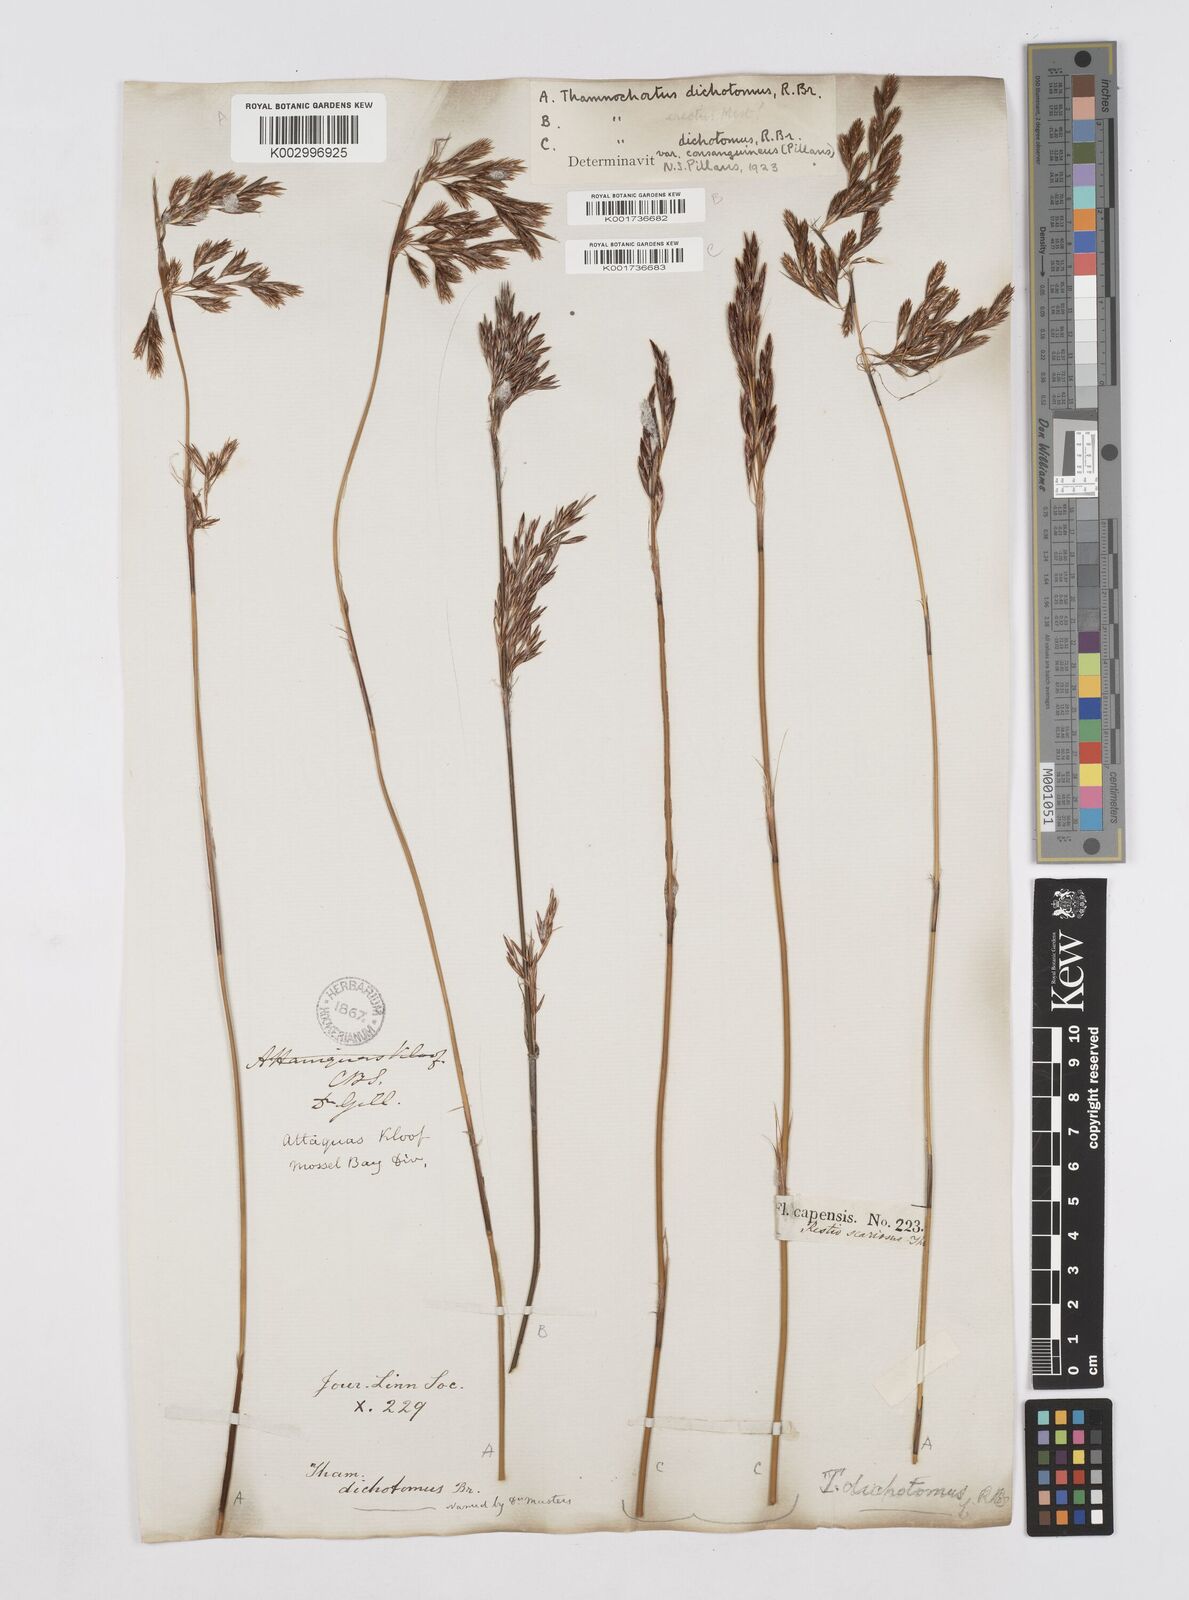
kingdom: Plantae
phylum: Tracheophyta
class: Liliopsida
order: Poales
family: Restionaceae
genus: Thamnochortus
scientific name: Thamnochortus lucens
